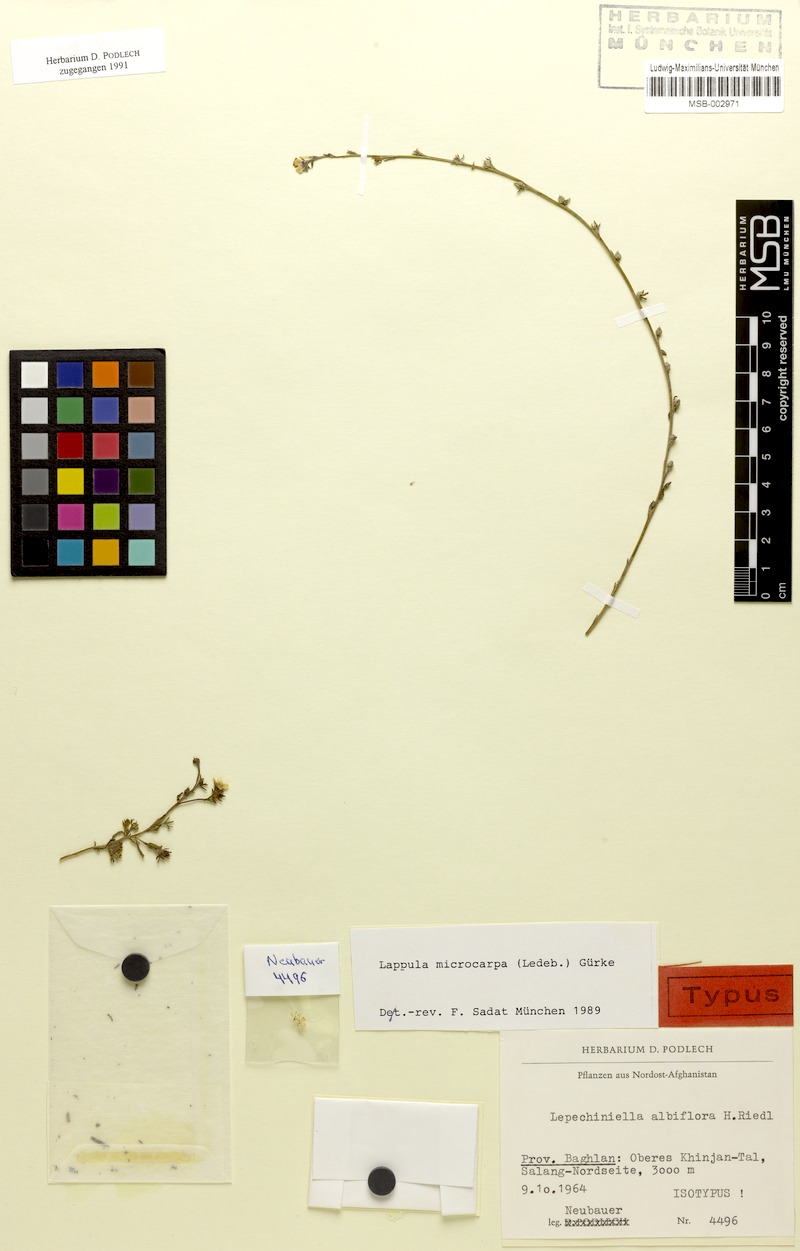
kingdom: Plantae
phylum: Tracheophyta
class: Magnoliopsida
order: Boraginales
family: Boraginaceae
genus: Lappula
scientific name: Lappula microcarpa
